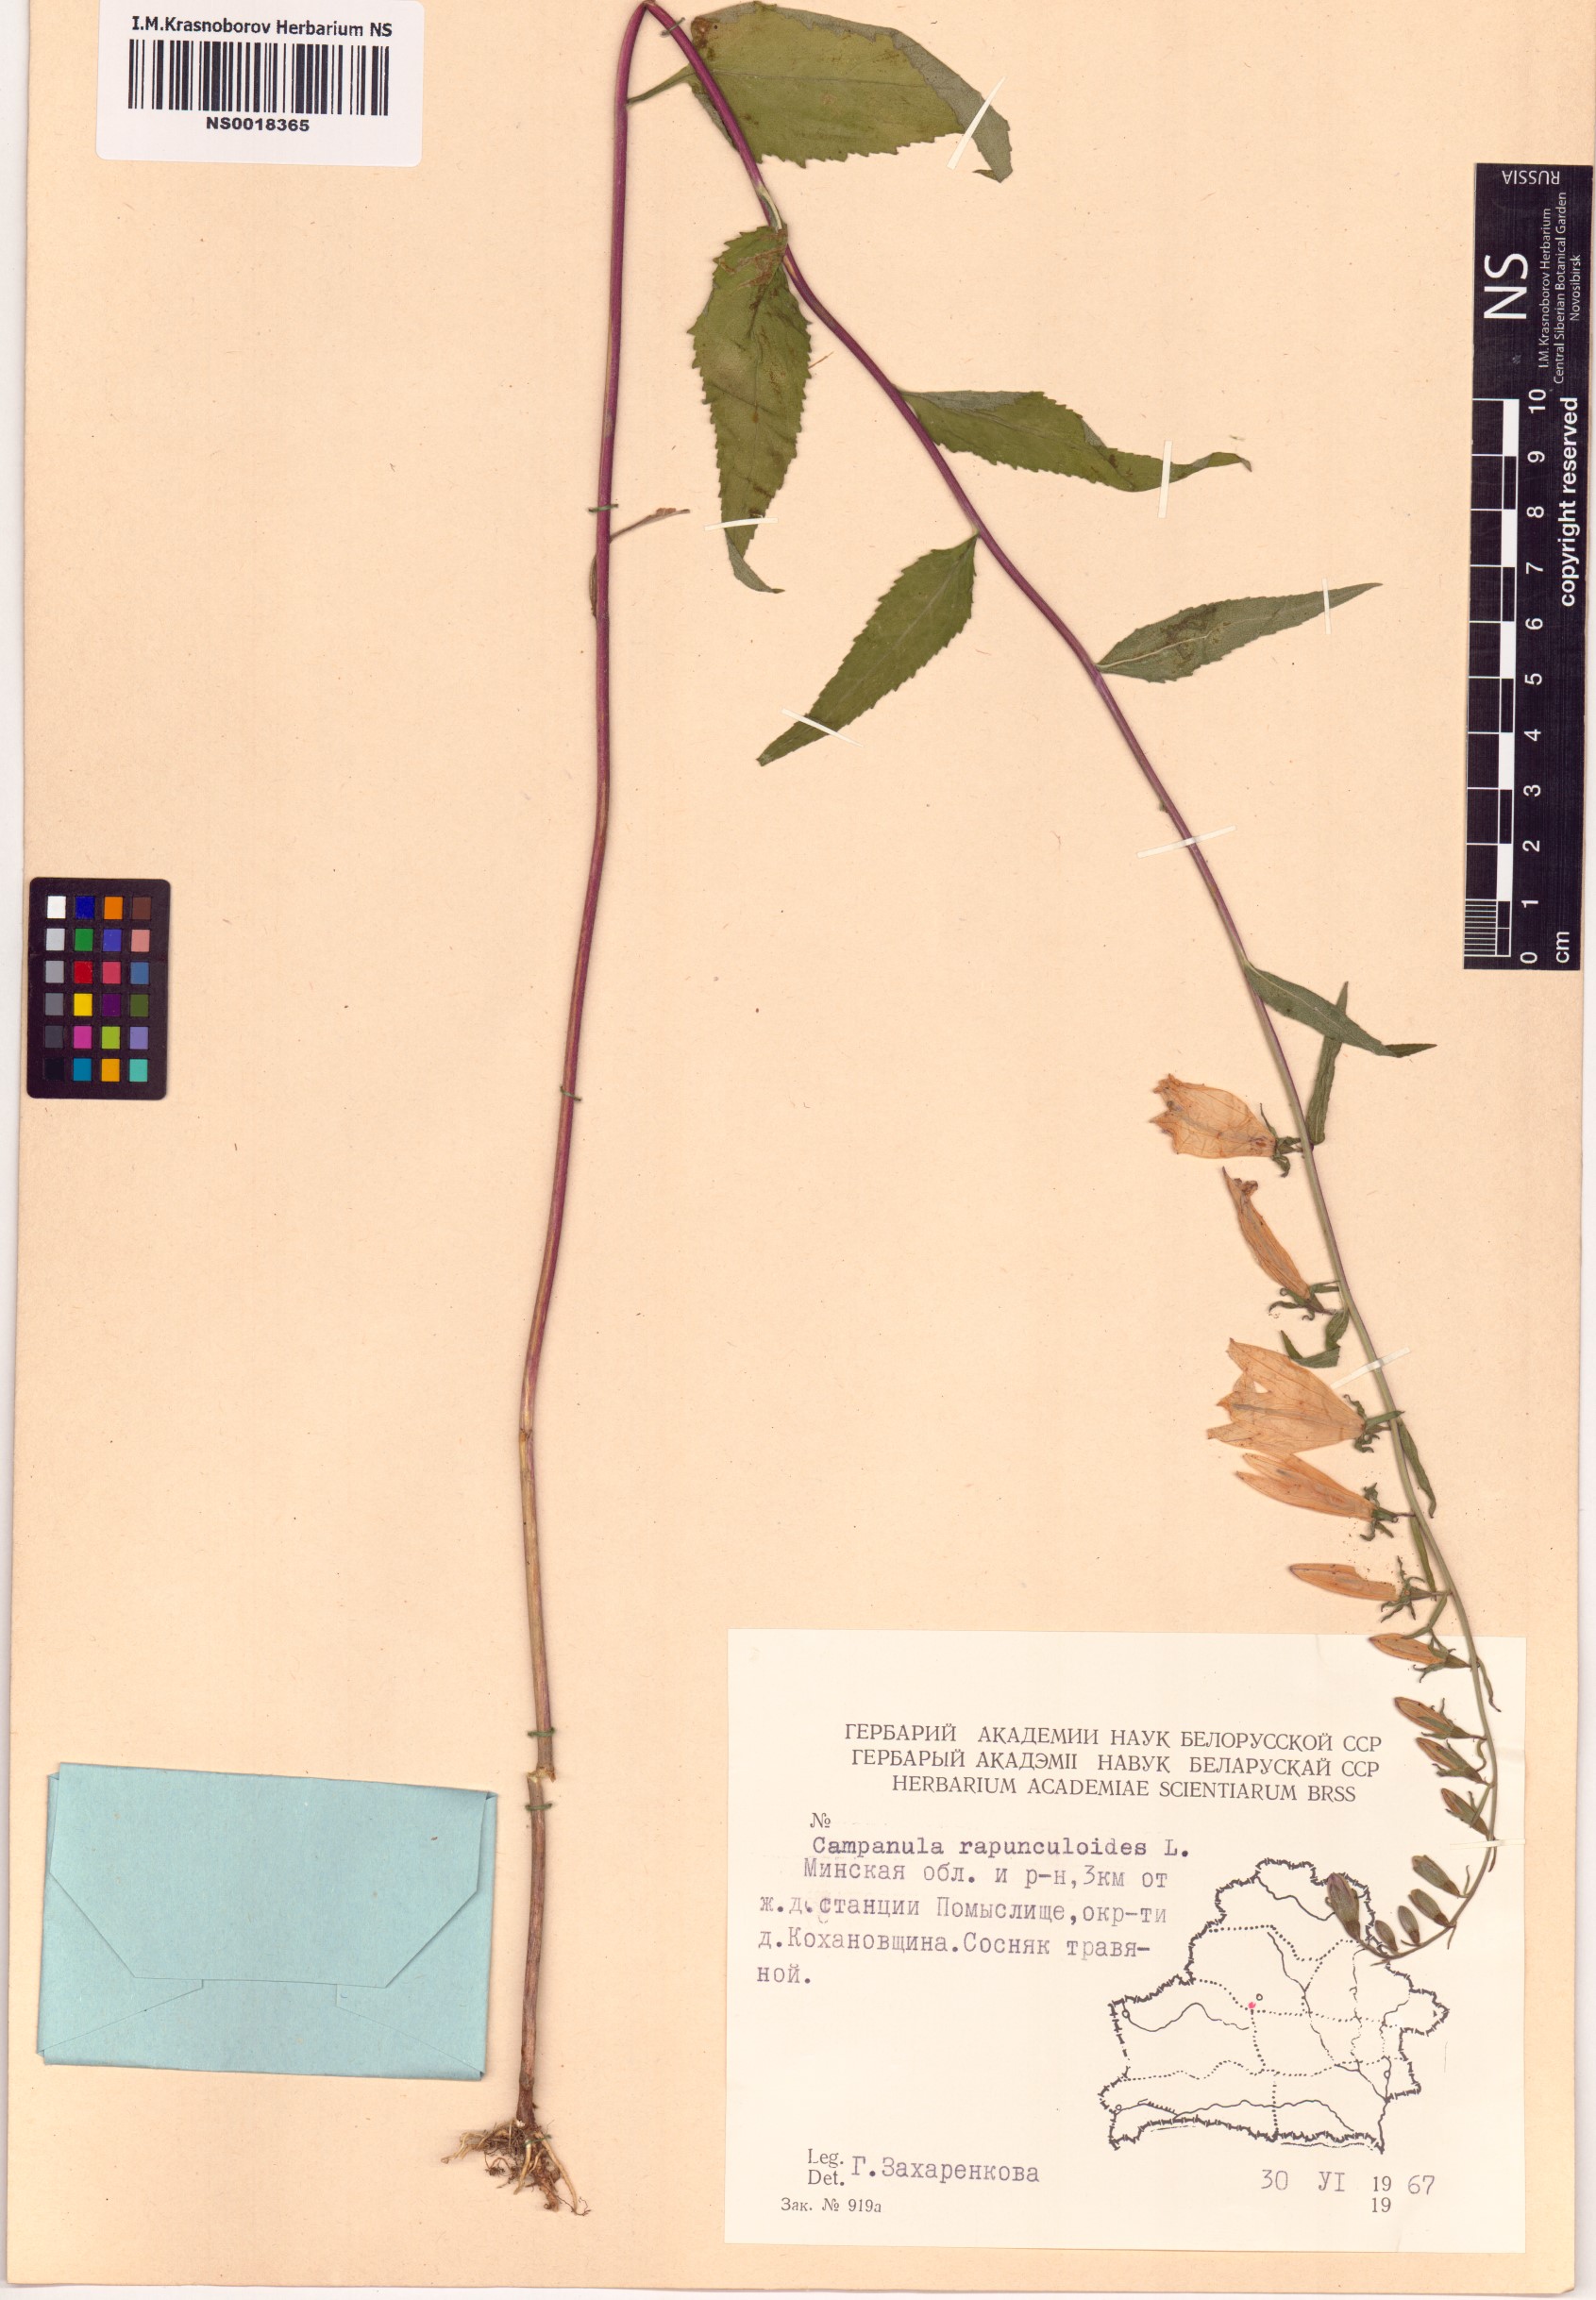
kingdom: Plantae
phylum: Tracheophyta
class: Magnoliopsida
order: Asterales
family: Campanulaceae
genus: Campanula
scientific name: Campanula rapunculoides
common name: Creeping bellflower
